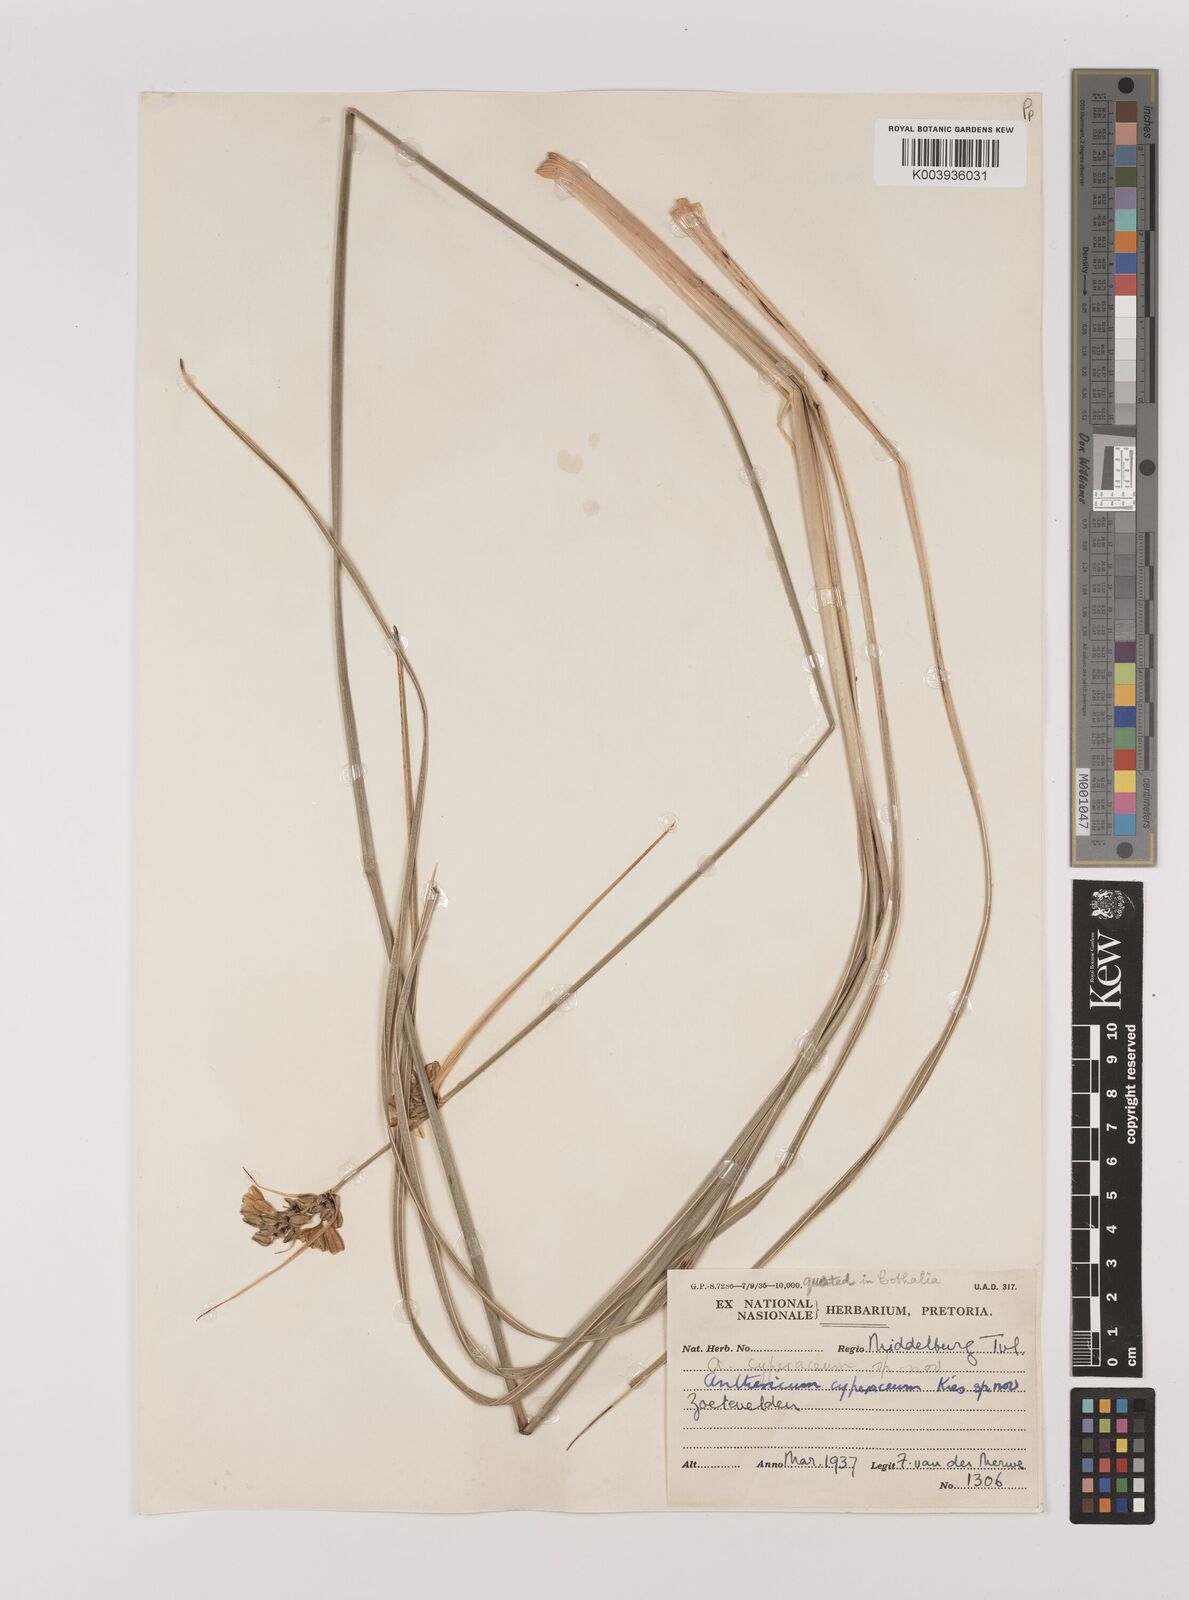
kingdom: Plantae
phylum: Tracheophyta
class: Liliopsida
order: Asparagales
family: Asparagaceae
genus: Chlorophytum
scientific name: Chlorophytum cyperaceum
